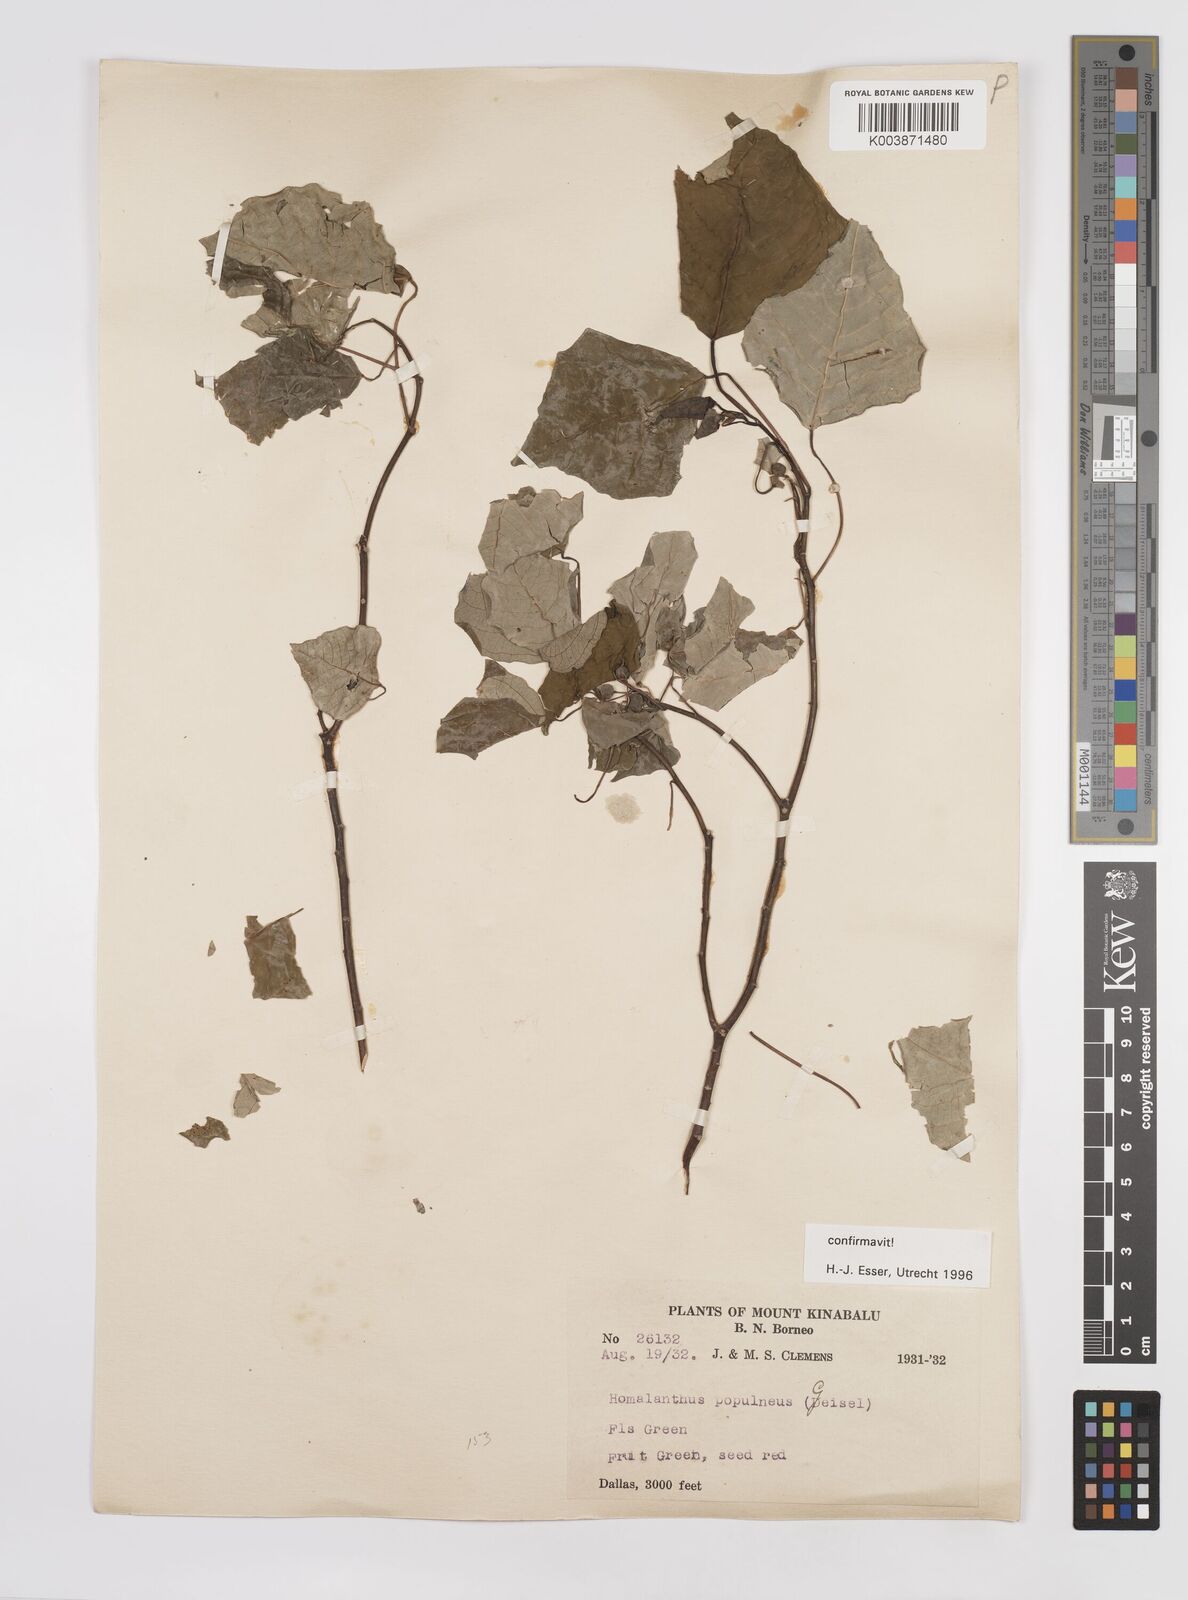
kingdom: Plantae
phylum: Tracheophyta
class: Magnoliopsida
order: Malpighiales
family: Euphorbiaceae
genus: Homalanthus
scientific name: Homalanthus populneus
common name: Spurge
